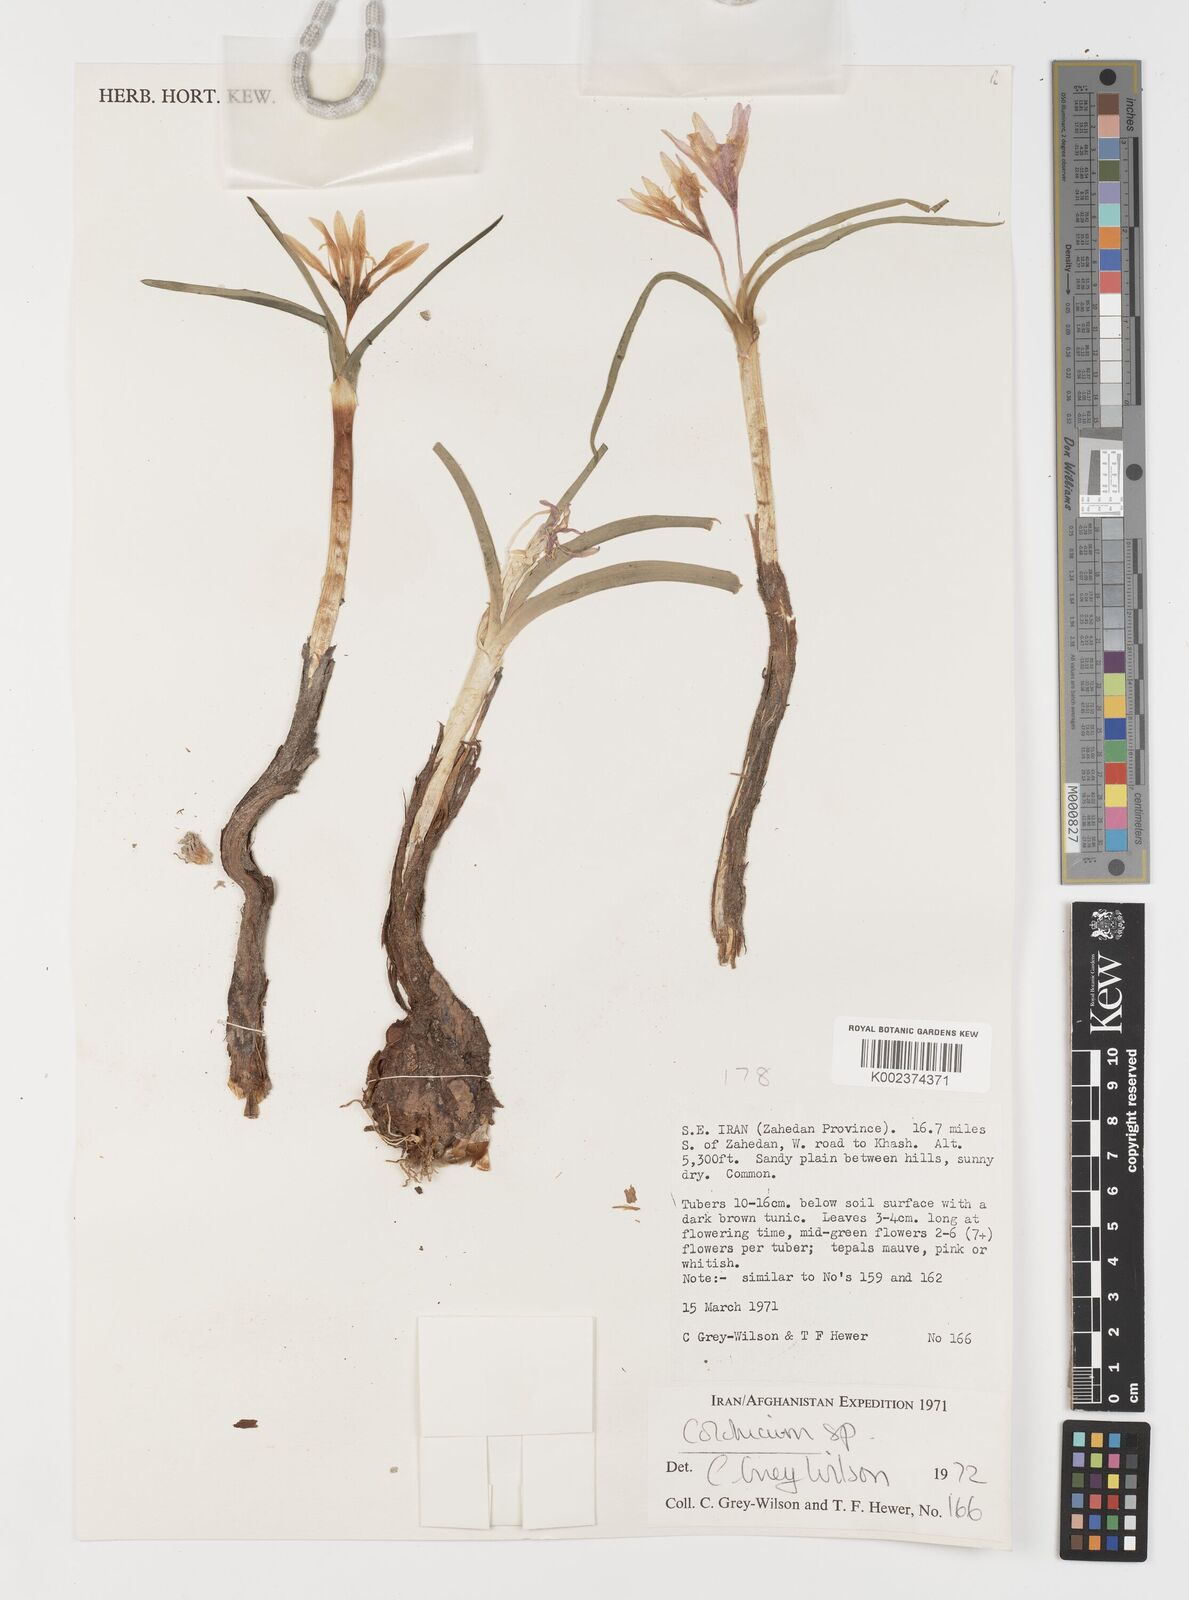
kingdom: Plantae
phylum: Tracheophyta
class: Liliopsida
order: Liliales
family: Colchicaceae
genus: Colchicum
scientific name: Colchicum
